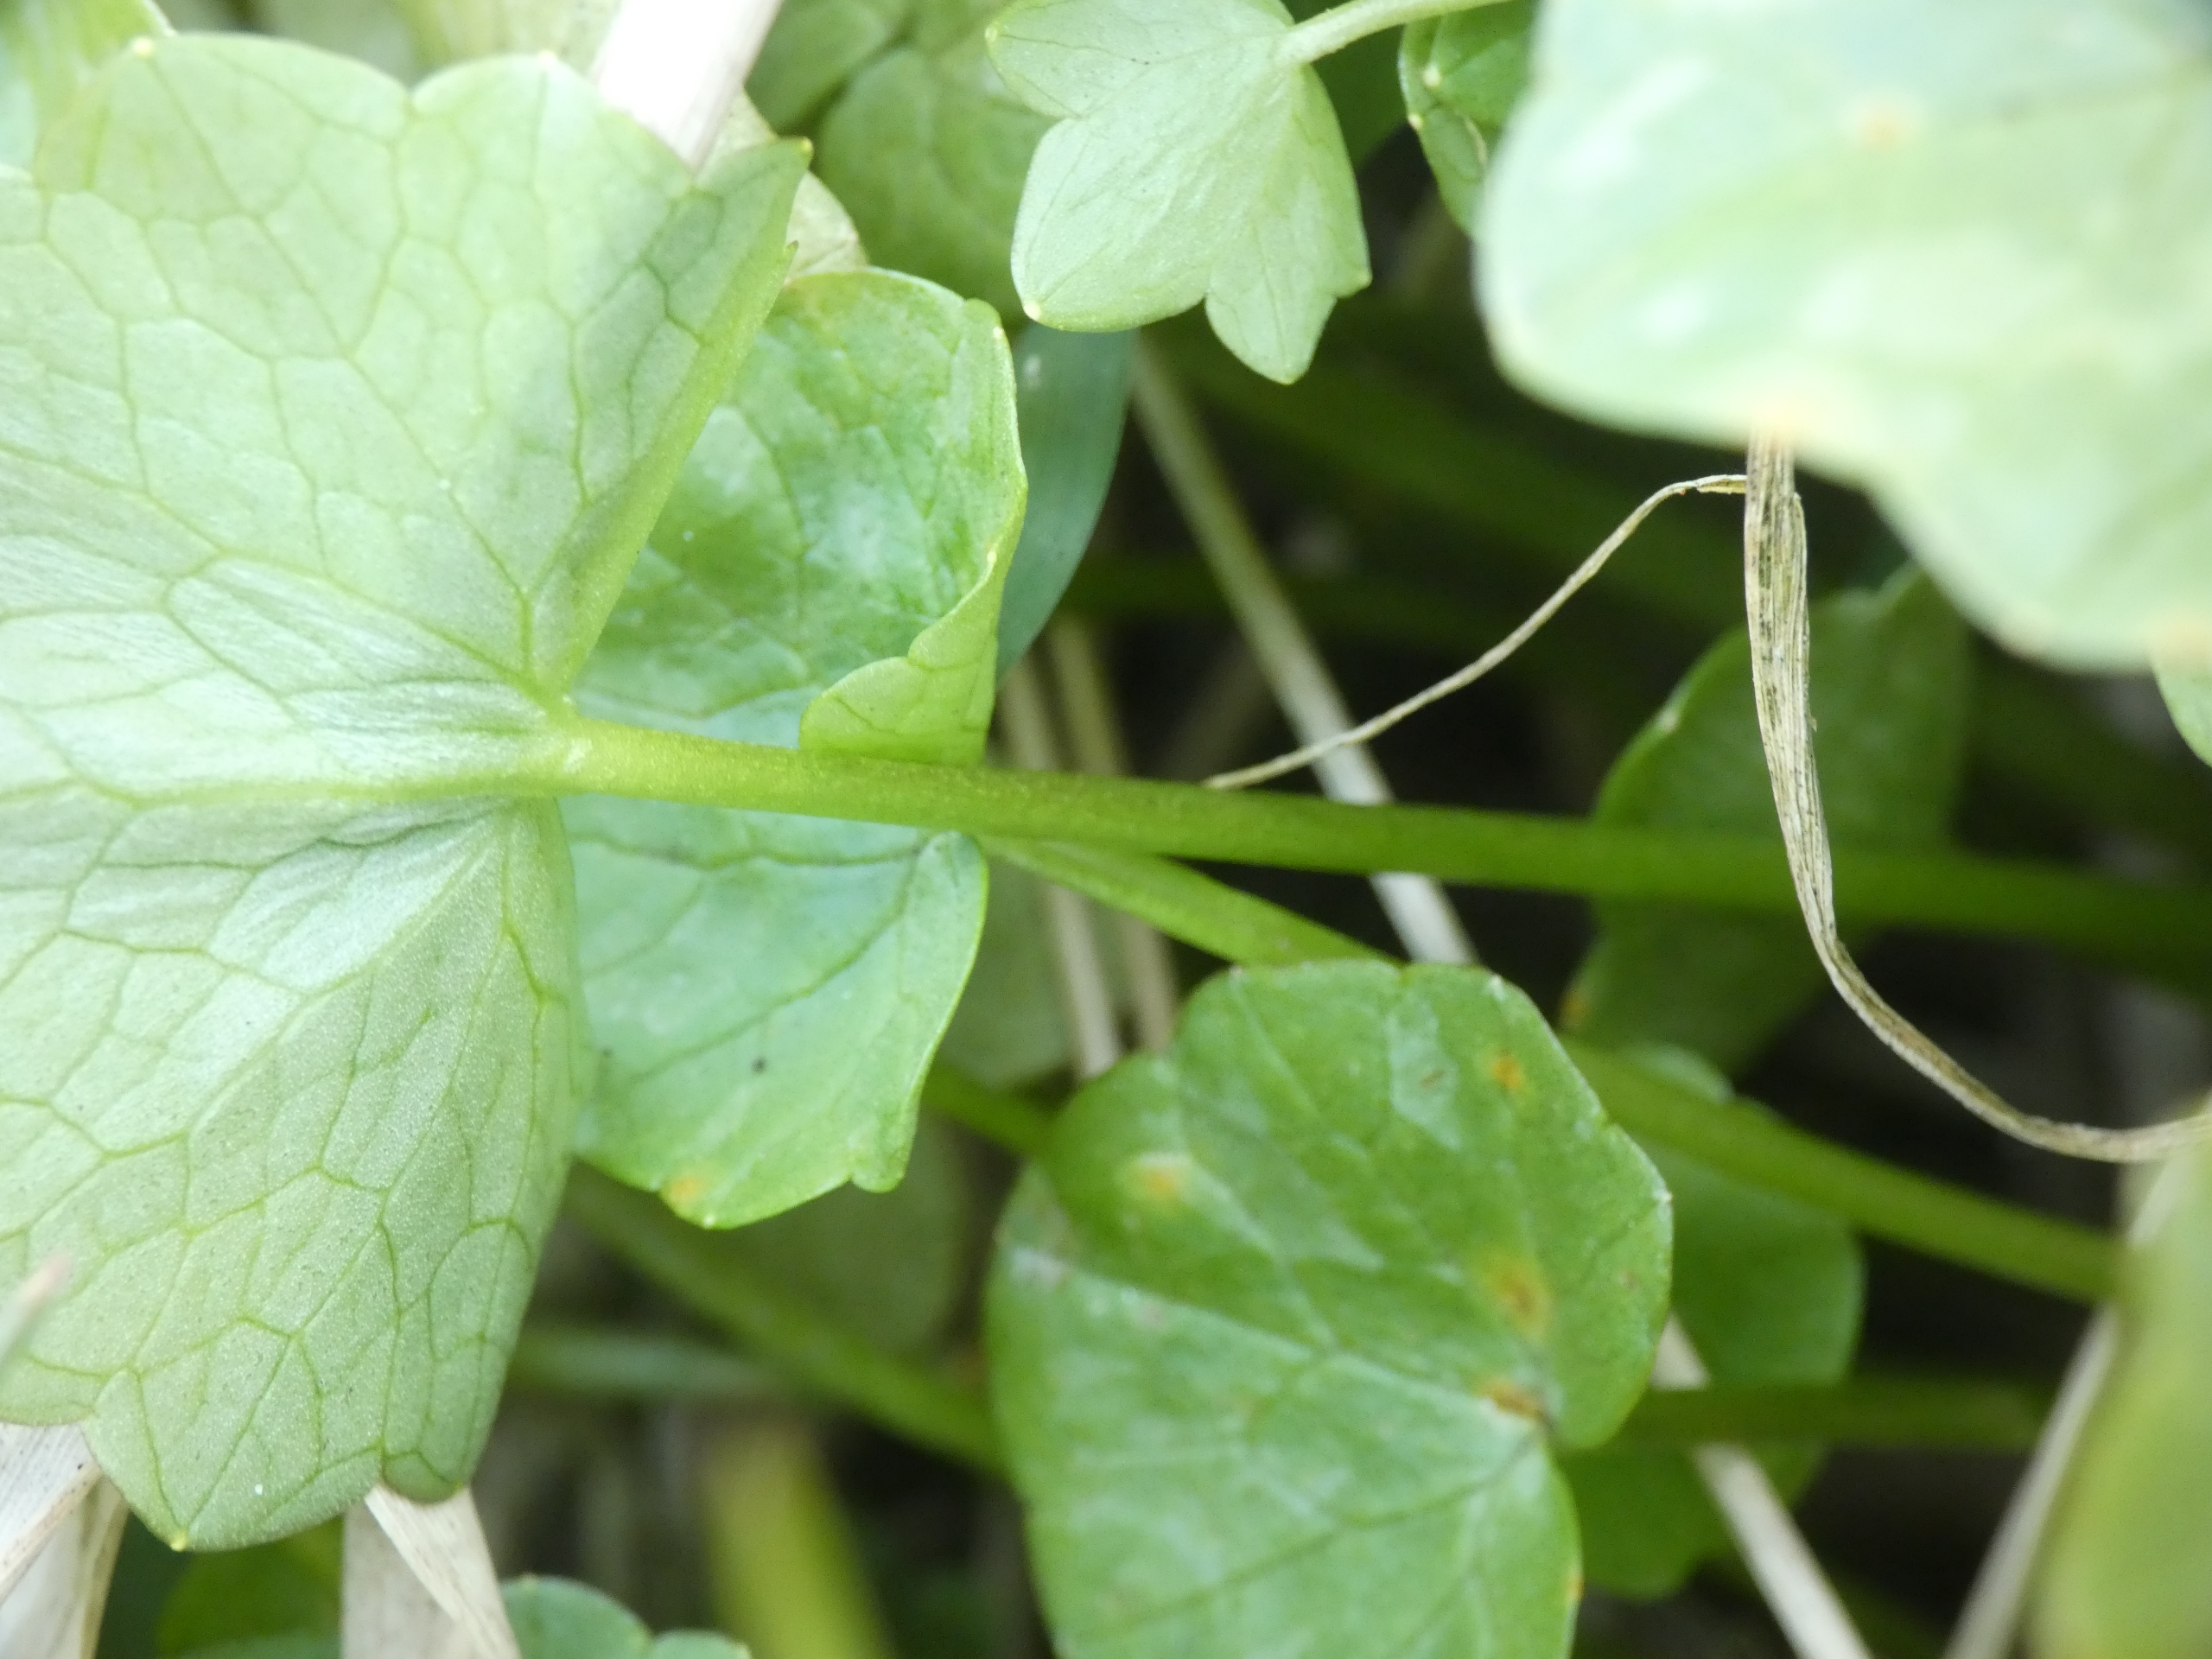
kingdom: Plantae
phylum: Tracheophyta
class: Magnoliopsida
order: Ranunculales
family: Ranunculaceae
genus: Ficaria
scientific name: Ficaria verna
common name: Vorterod
